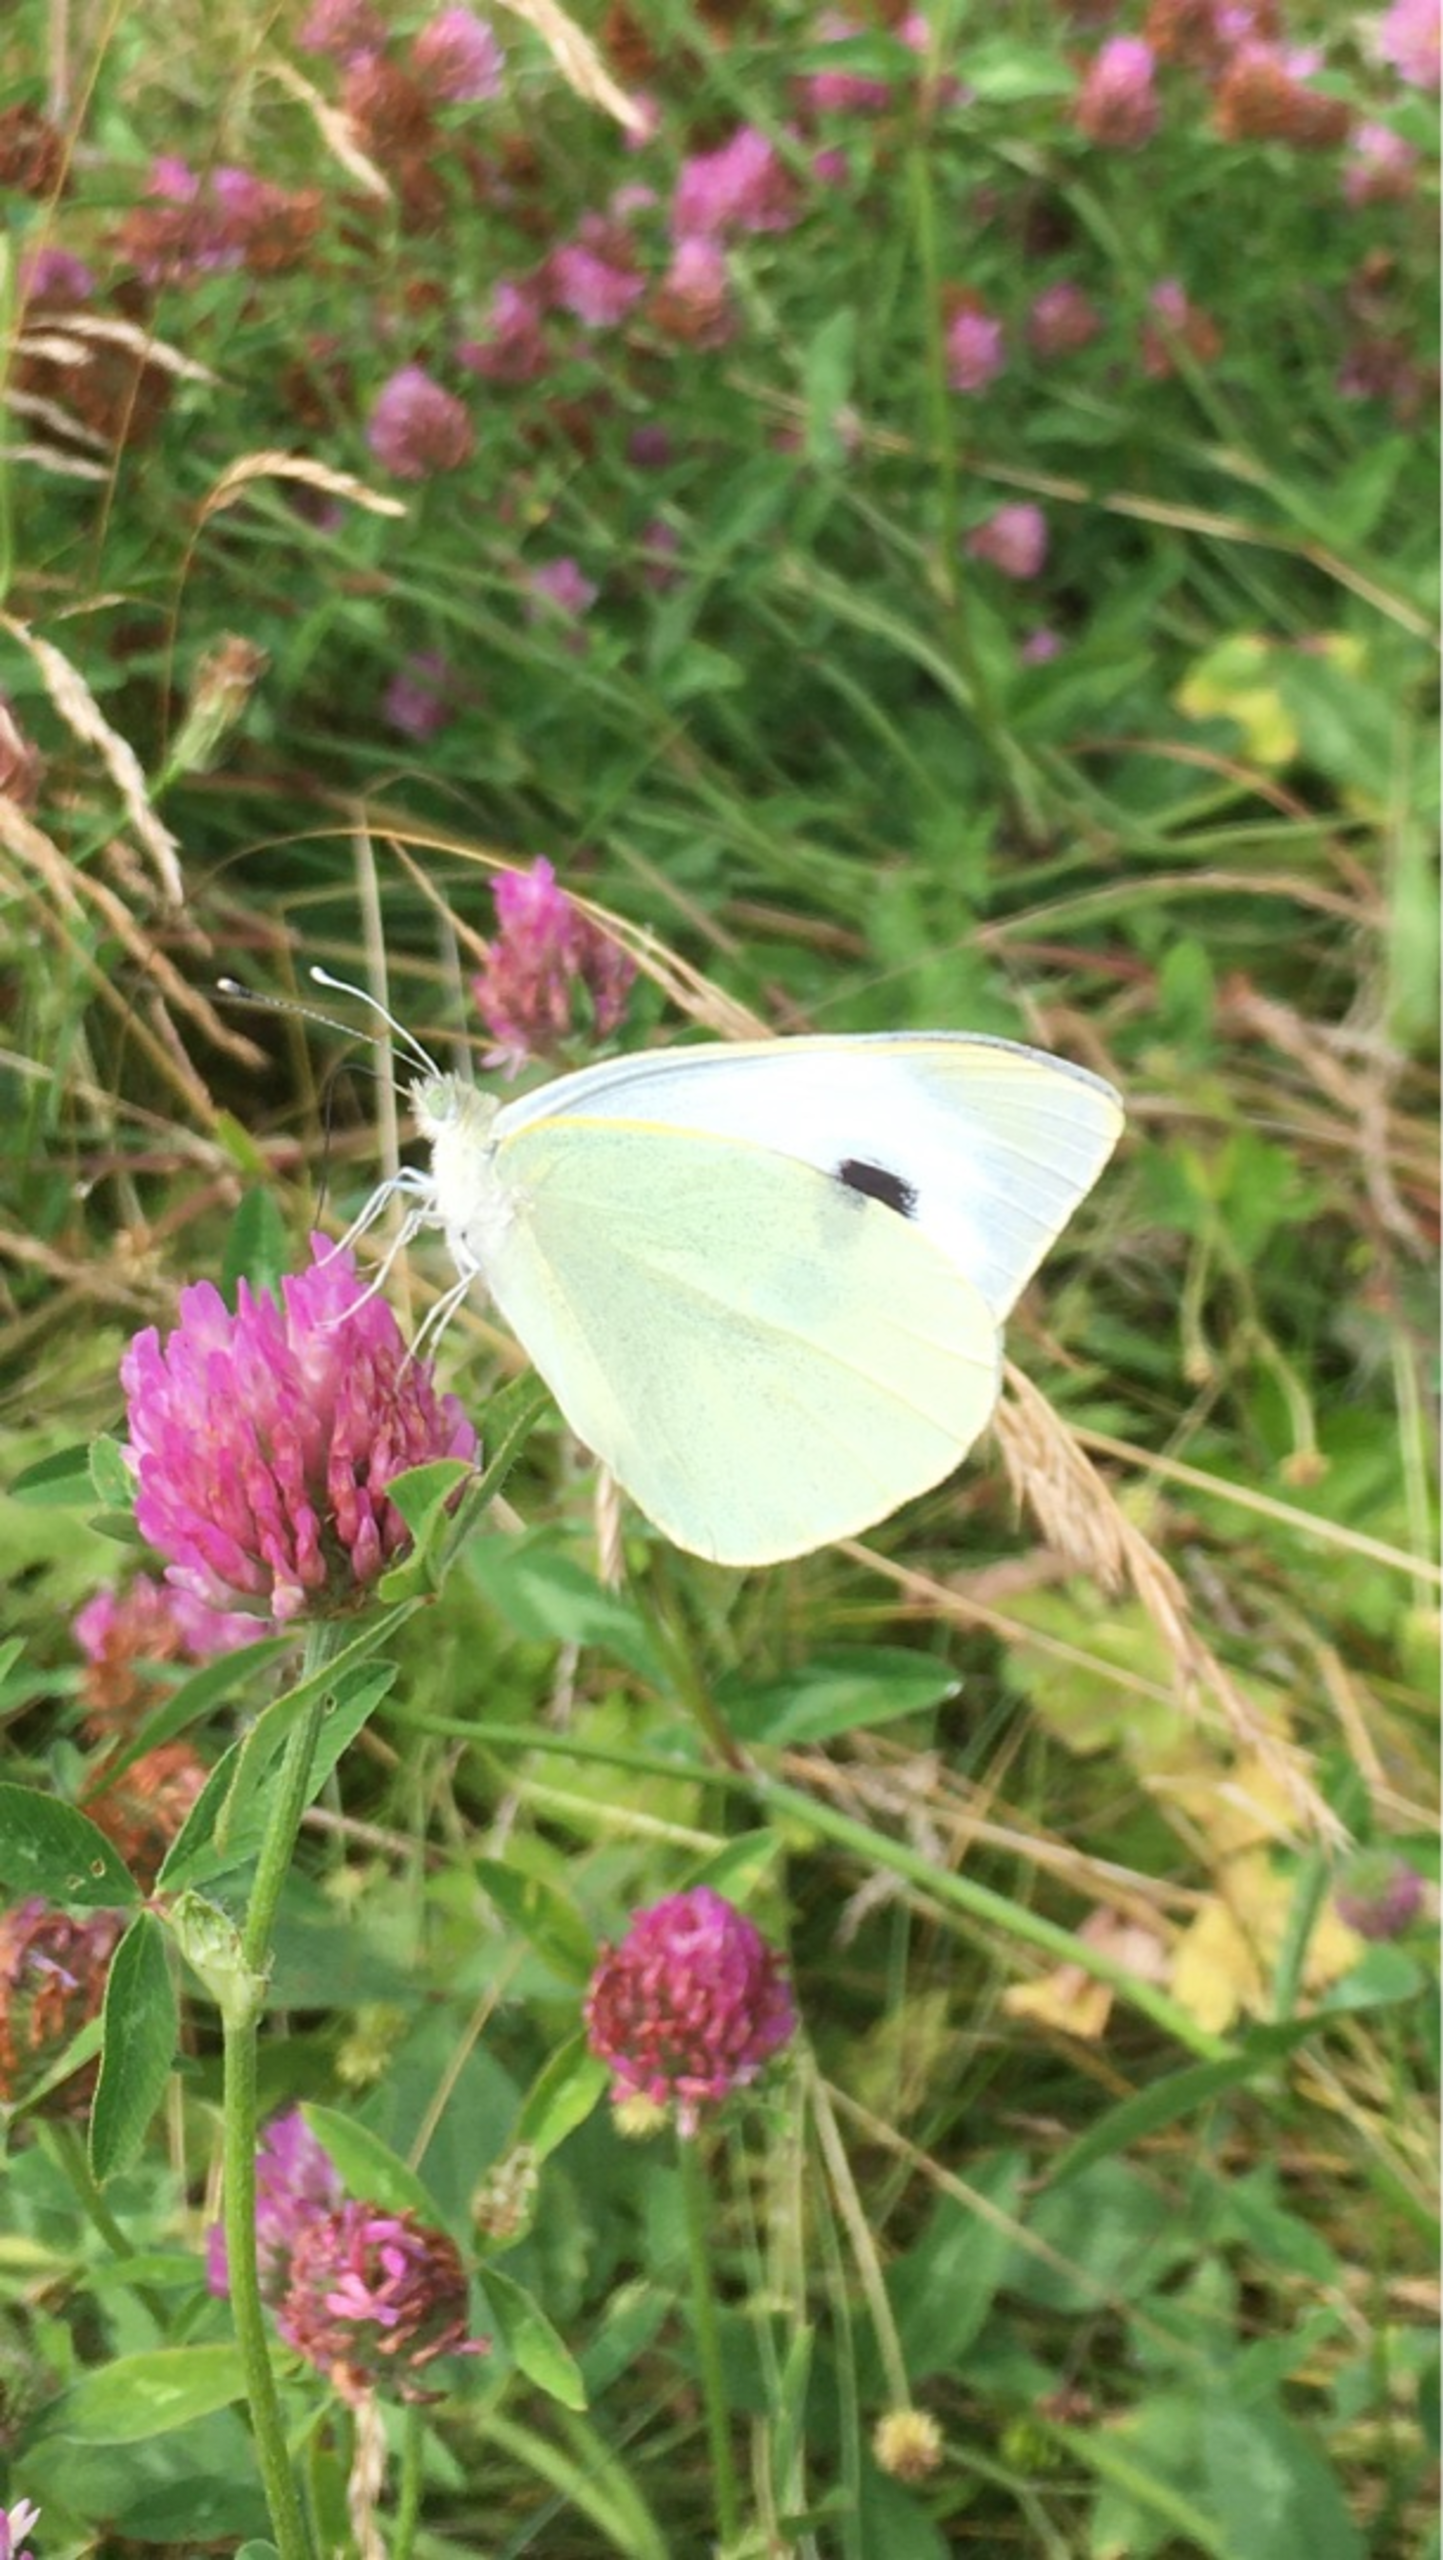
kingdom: Animalia
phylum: Arthropoda
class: Insecta
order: Lepidoptera
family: Pieridae
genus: Pieris
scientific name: Pieris brassicae
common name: Stor kålsommerfugl
